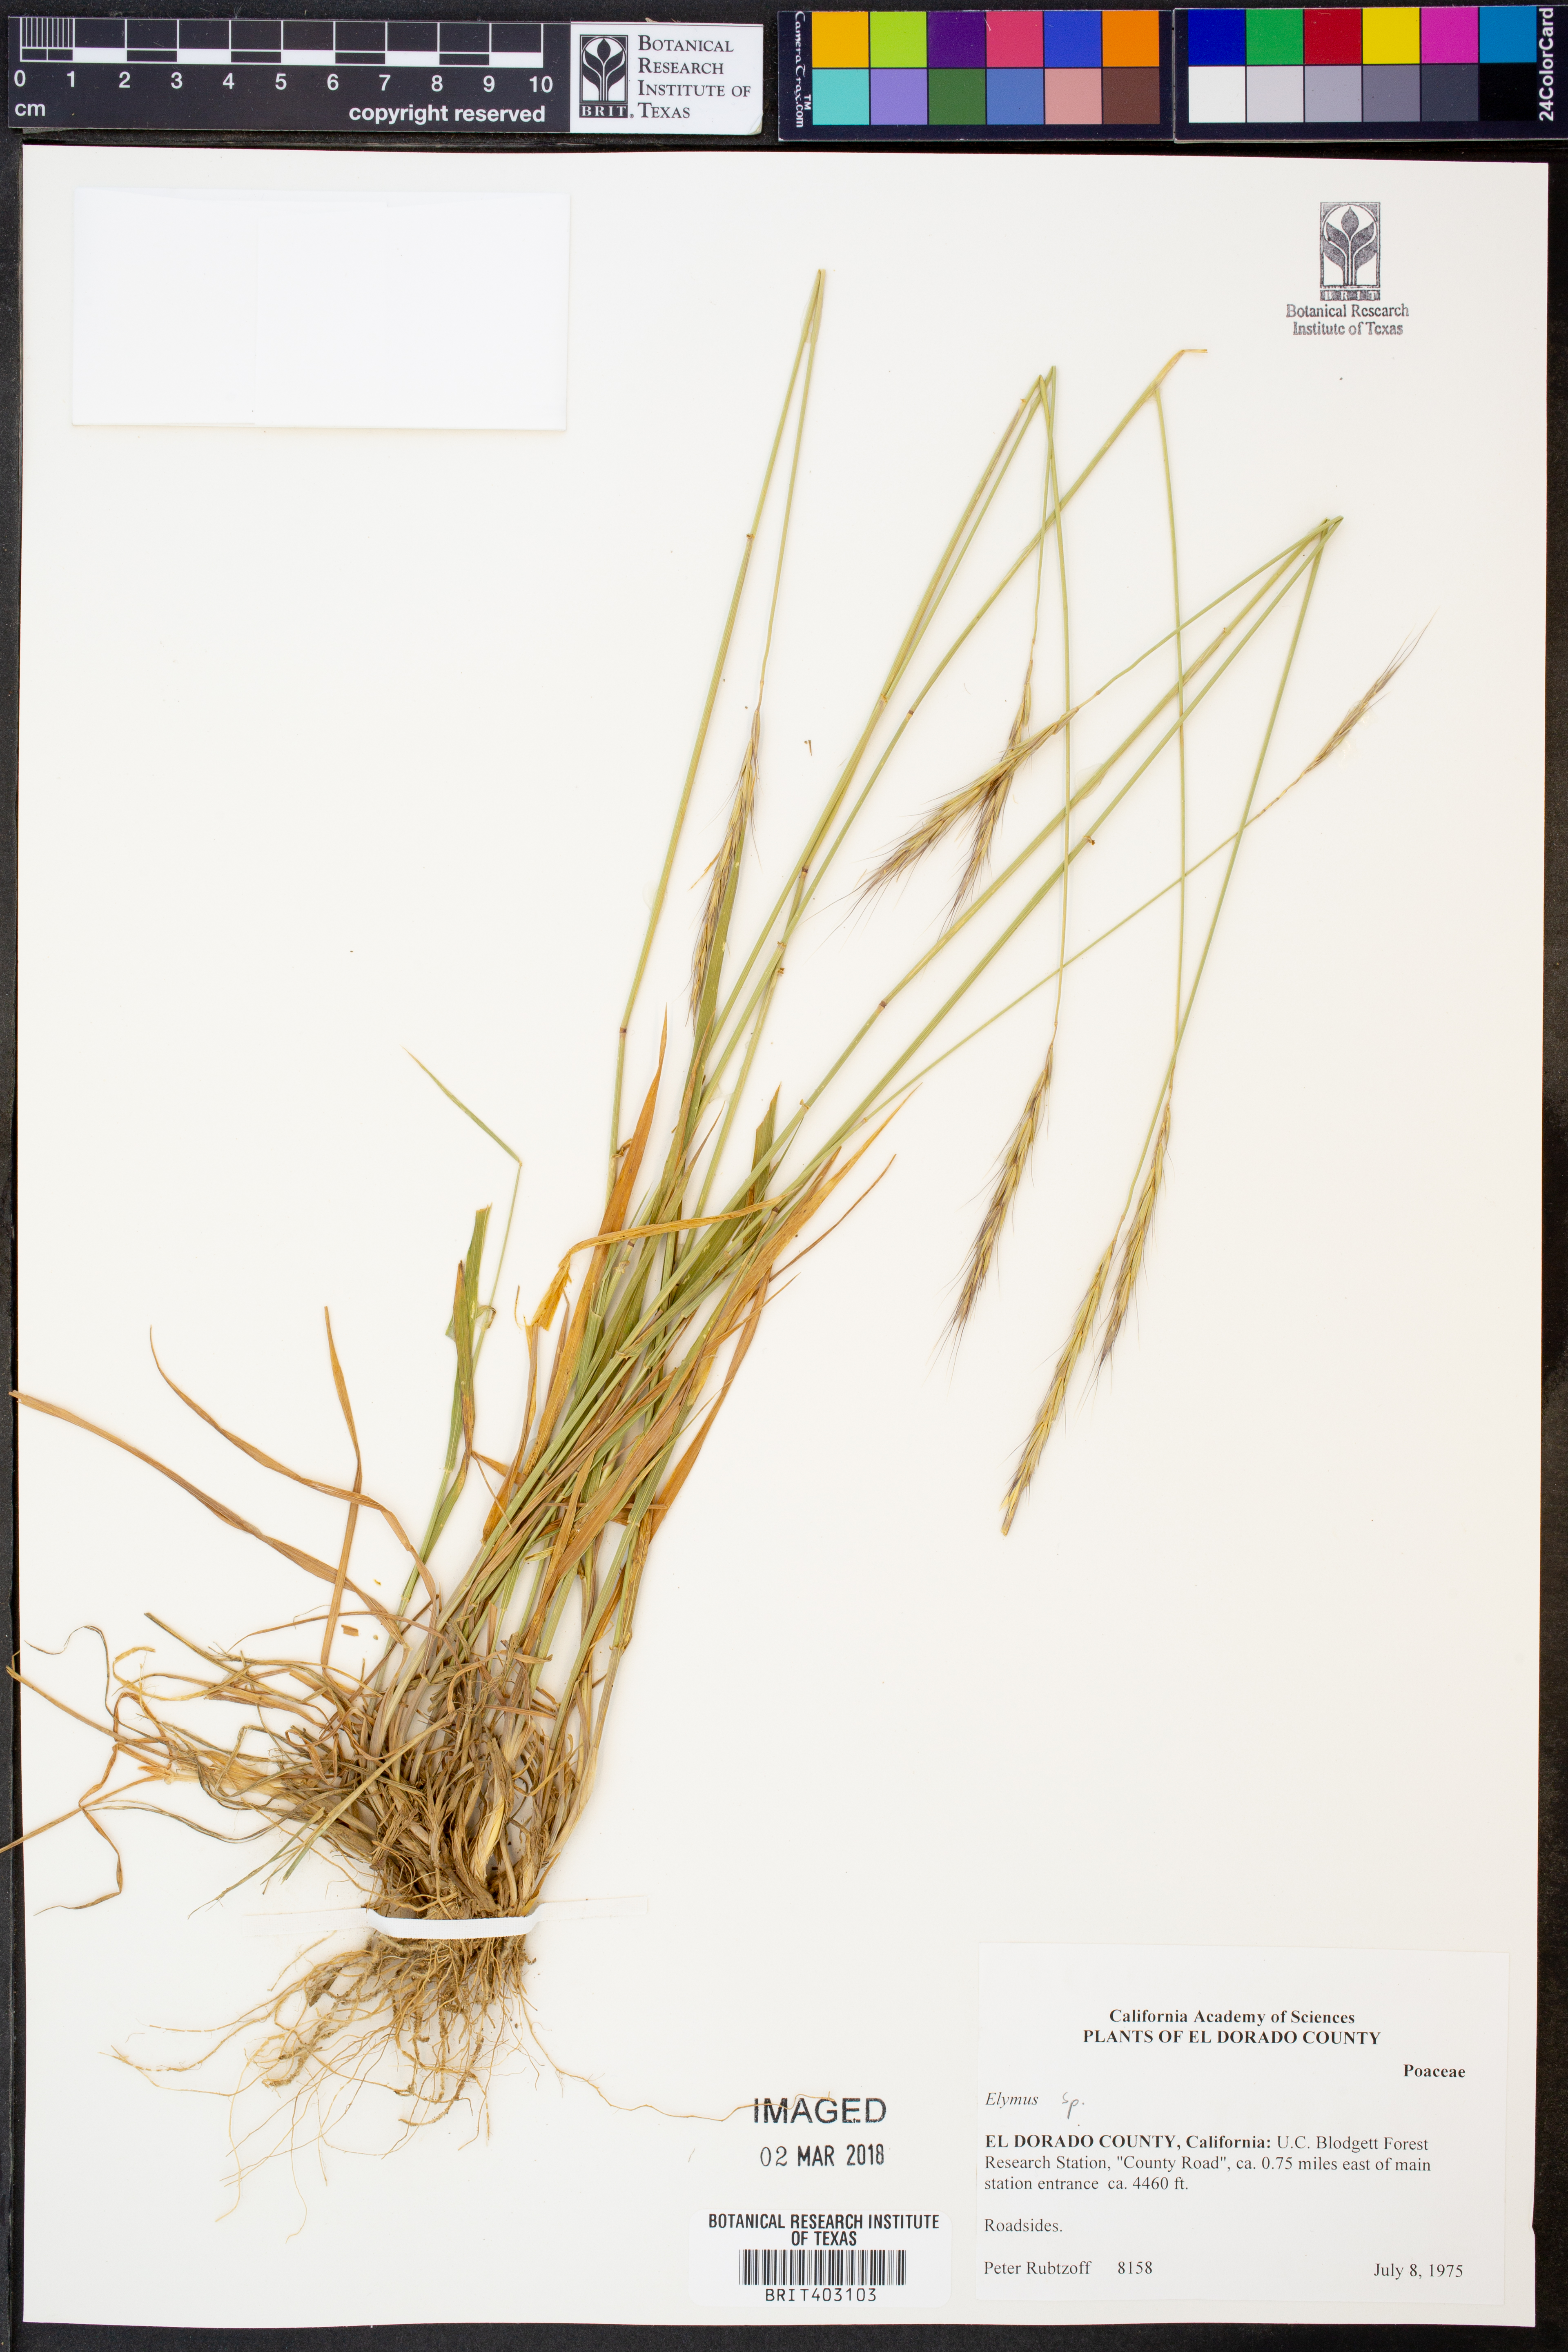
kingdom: Plantae
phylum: Tracheophyta
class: Liliopsida
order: Poales
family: Poaceae
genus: Elymus
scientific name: Elymus
